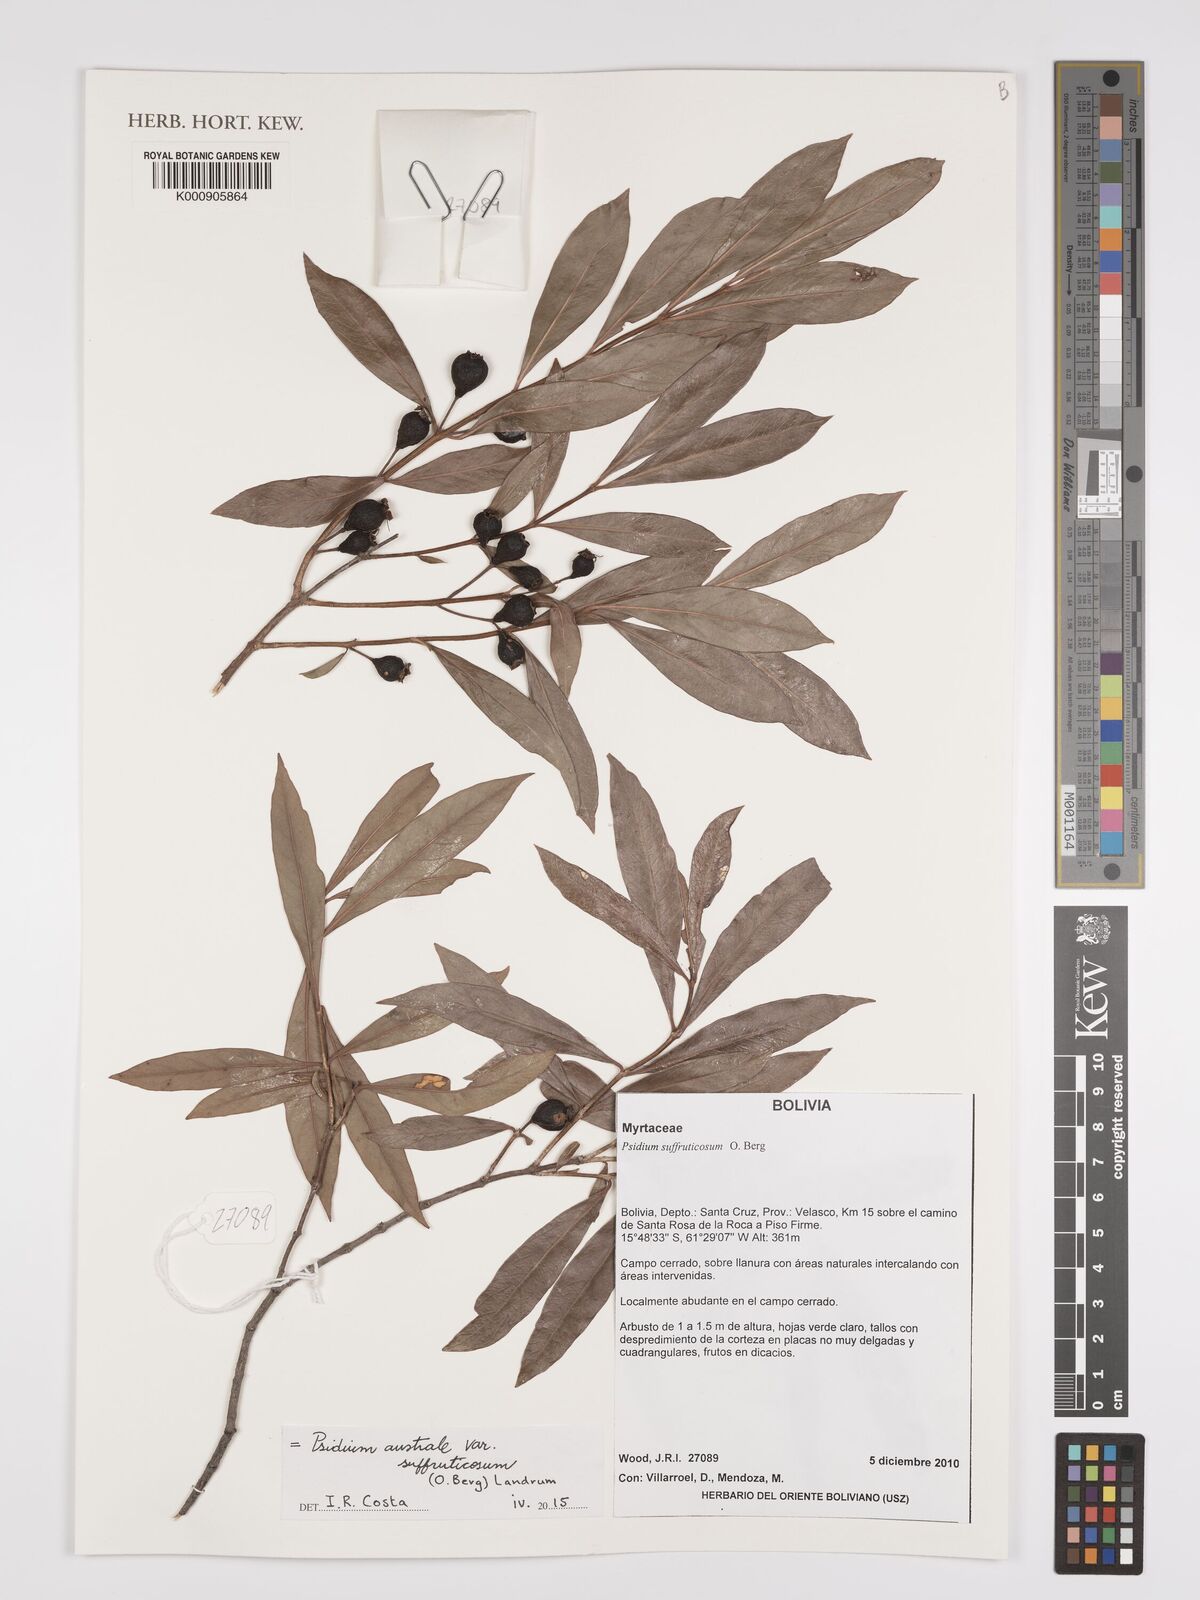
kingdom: Plantae
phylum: Tracheophyta
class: Magnoliopsida
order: Myrtales
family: Myrtaceae
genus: Psidium
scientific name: Psidium australe
